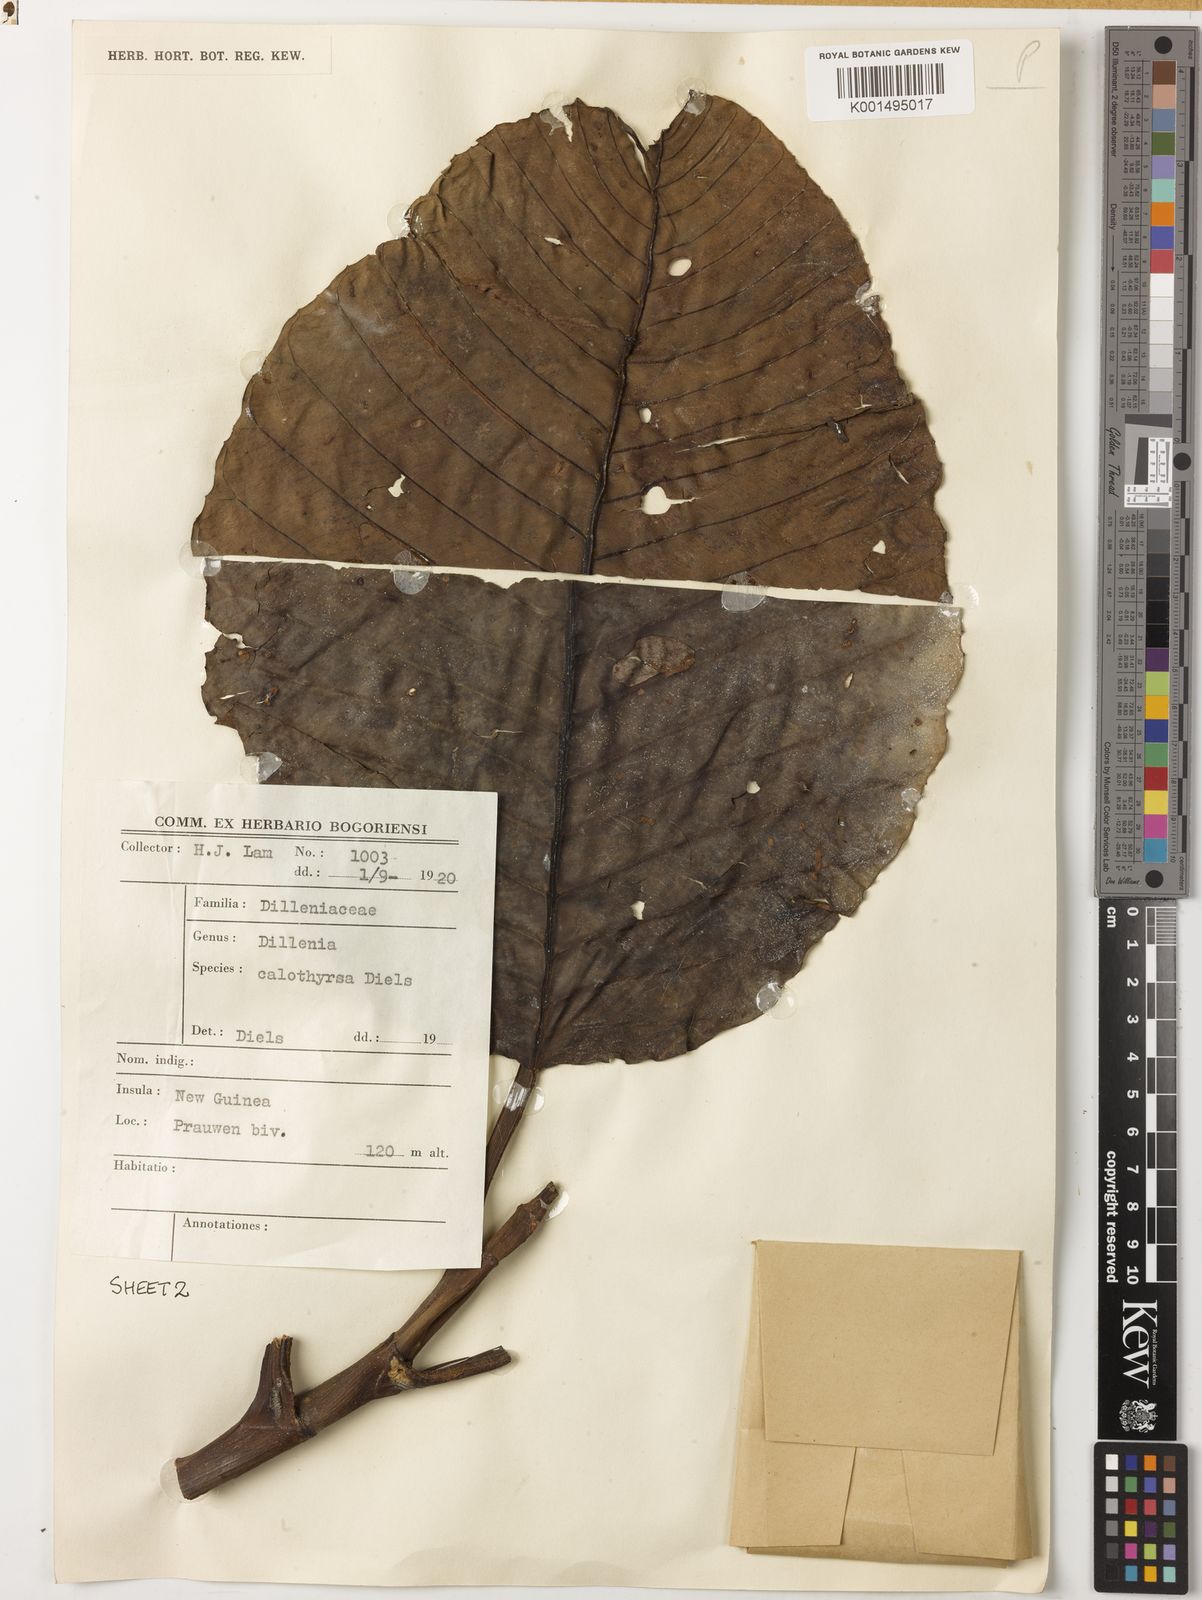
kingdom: Plantae
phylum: Tracheophyta
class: Magnoliopsida
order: Dilleniales
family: Dilleniaceae
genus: Dillenia
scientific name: Dillenia papuana
